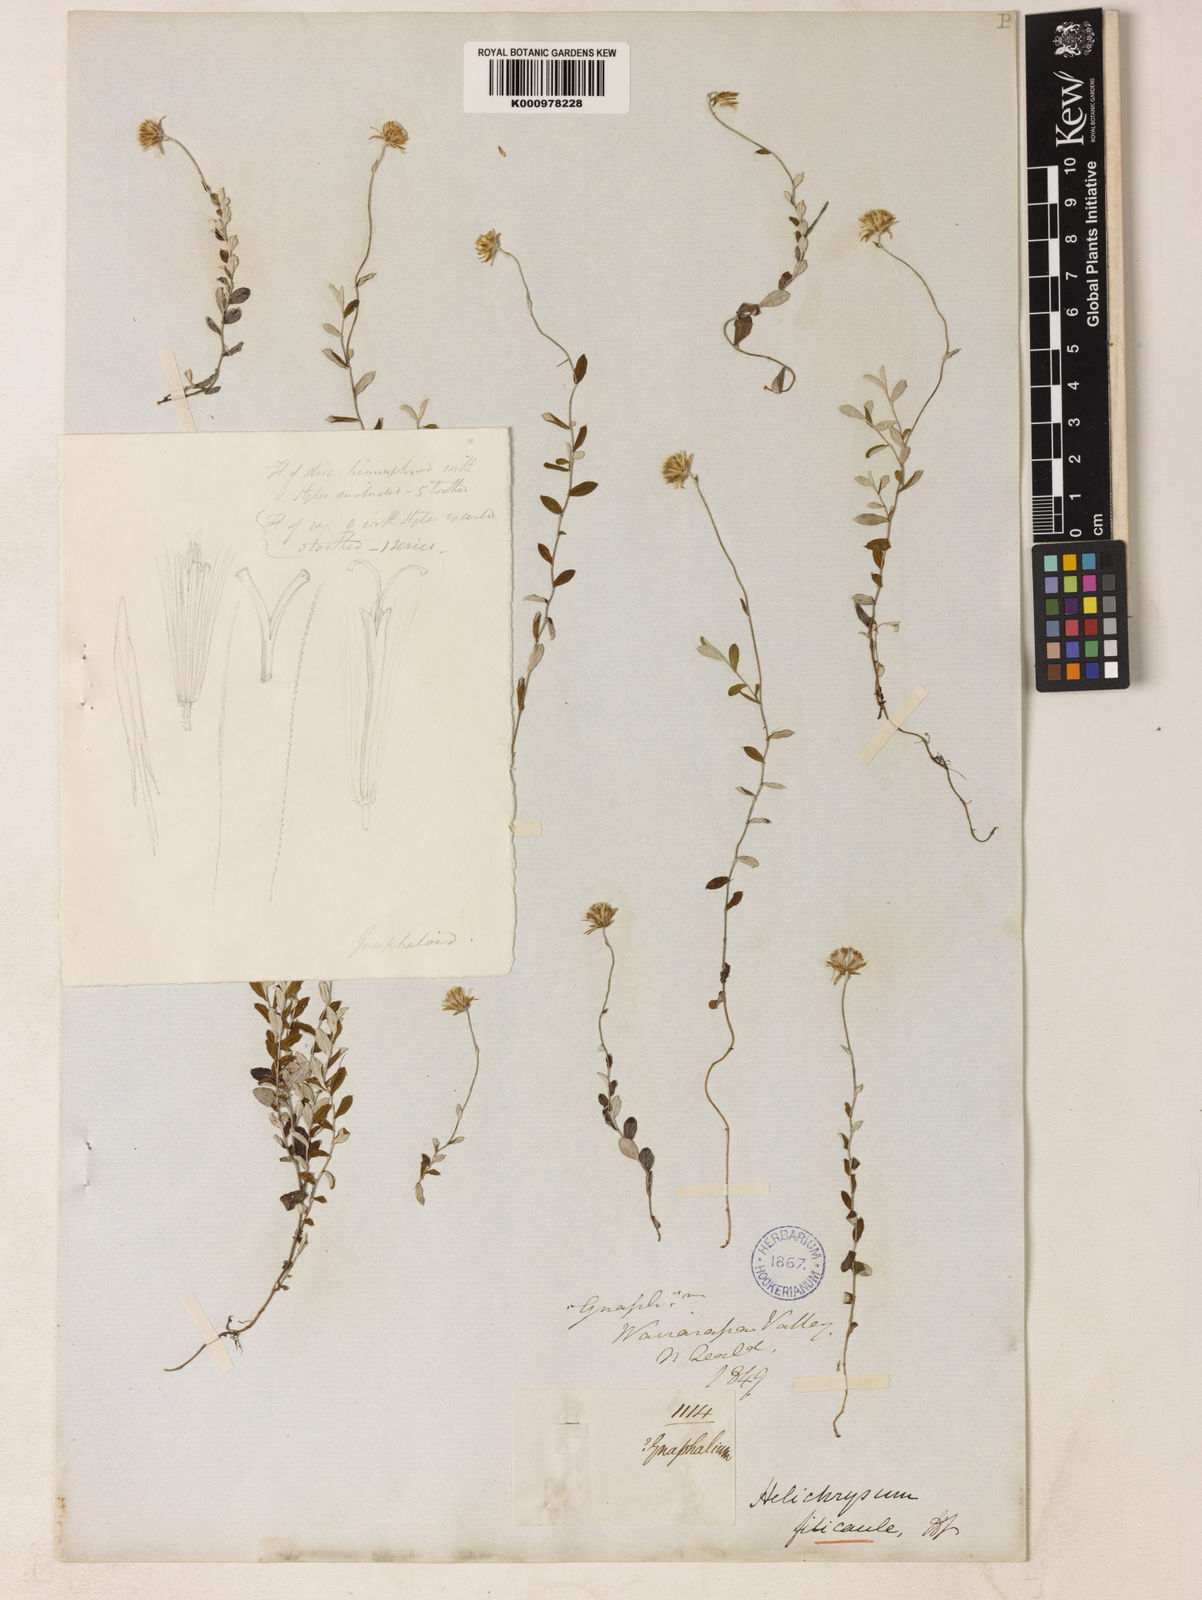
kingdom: Plantae
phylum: Tracheophyta
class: Magnoliopsida
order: Asterales
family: Asteraceae
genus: Helichrysum
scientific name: Helichrysum filicaule
